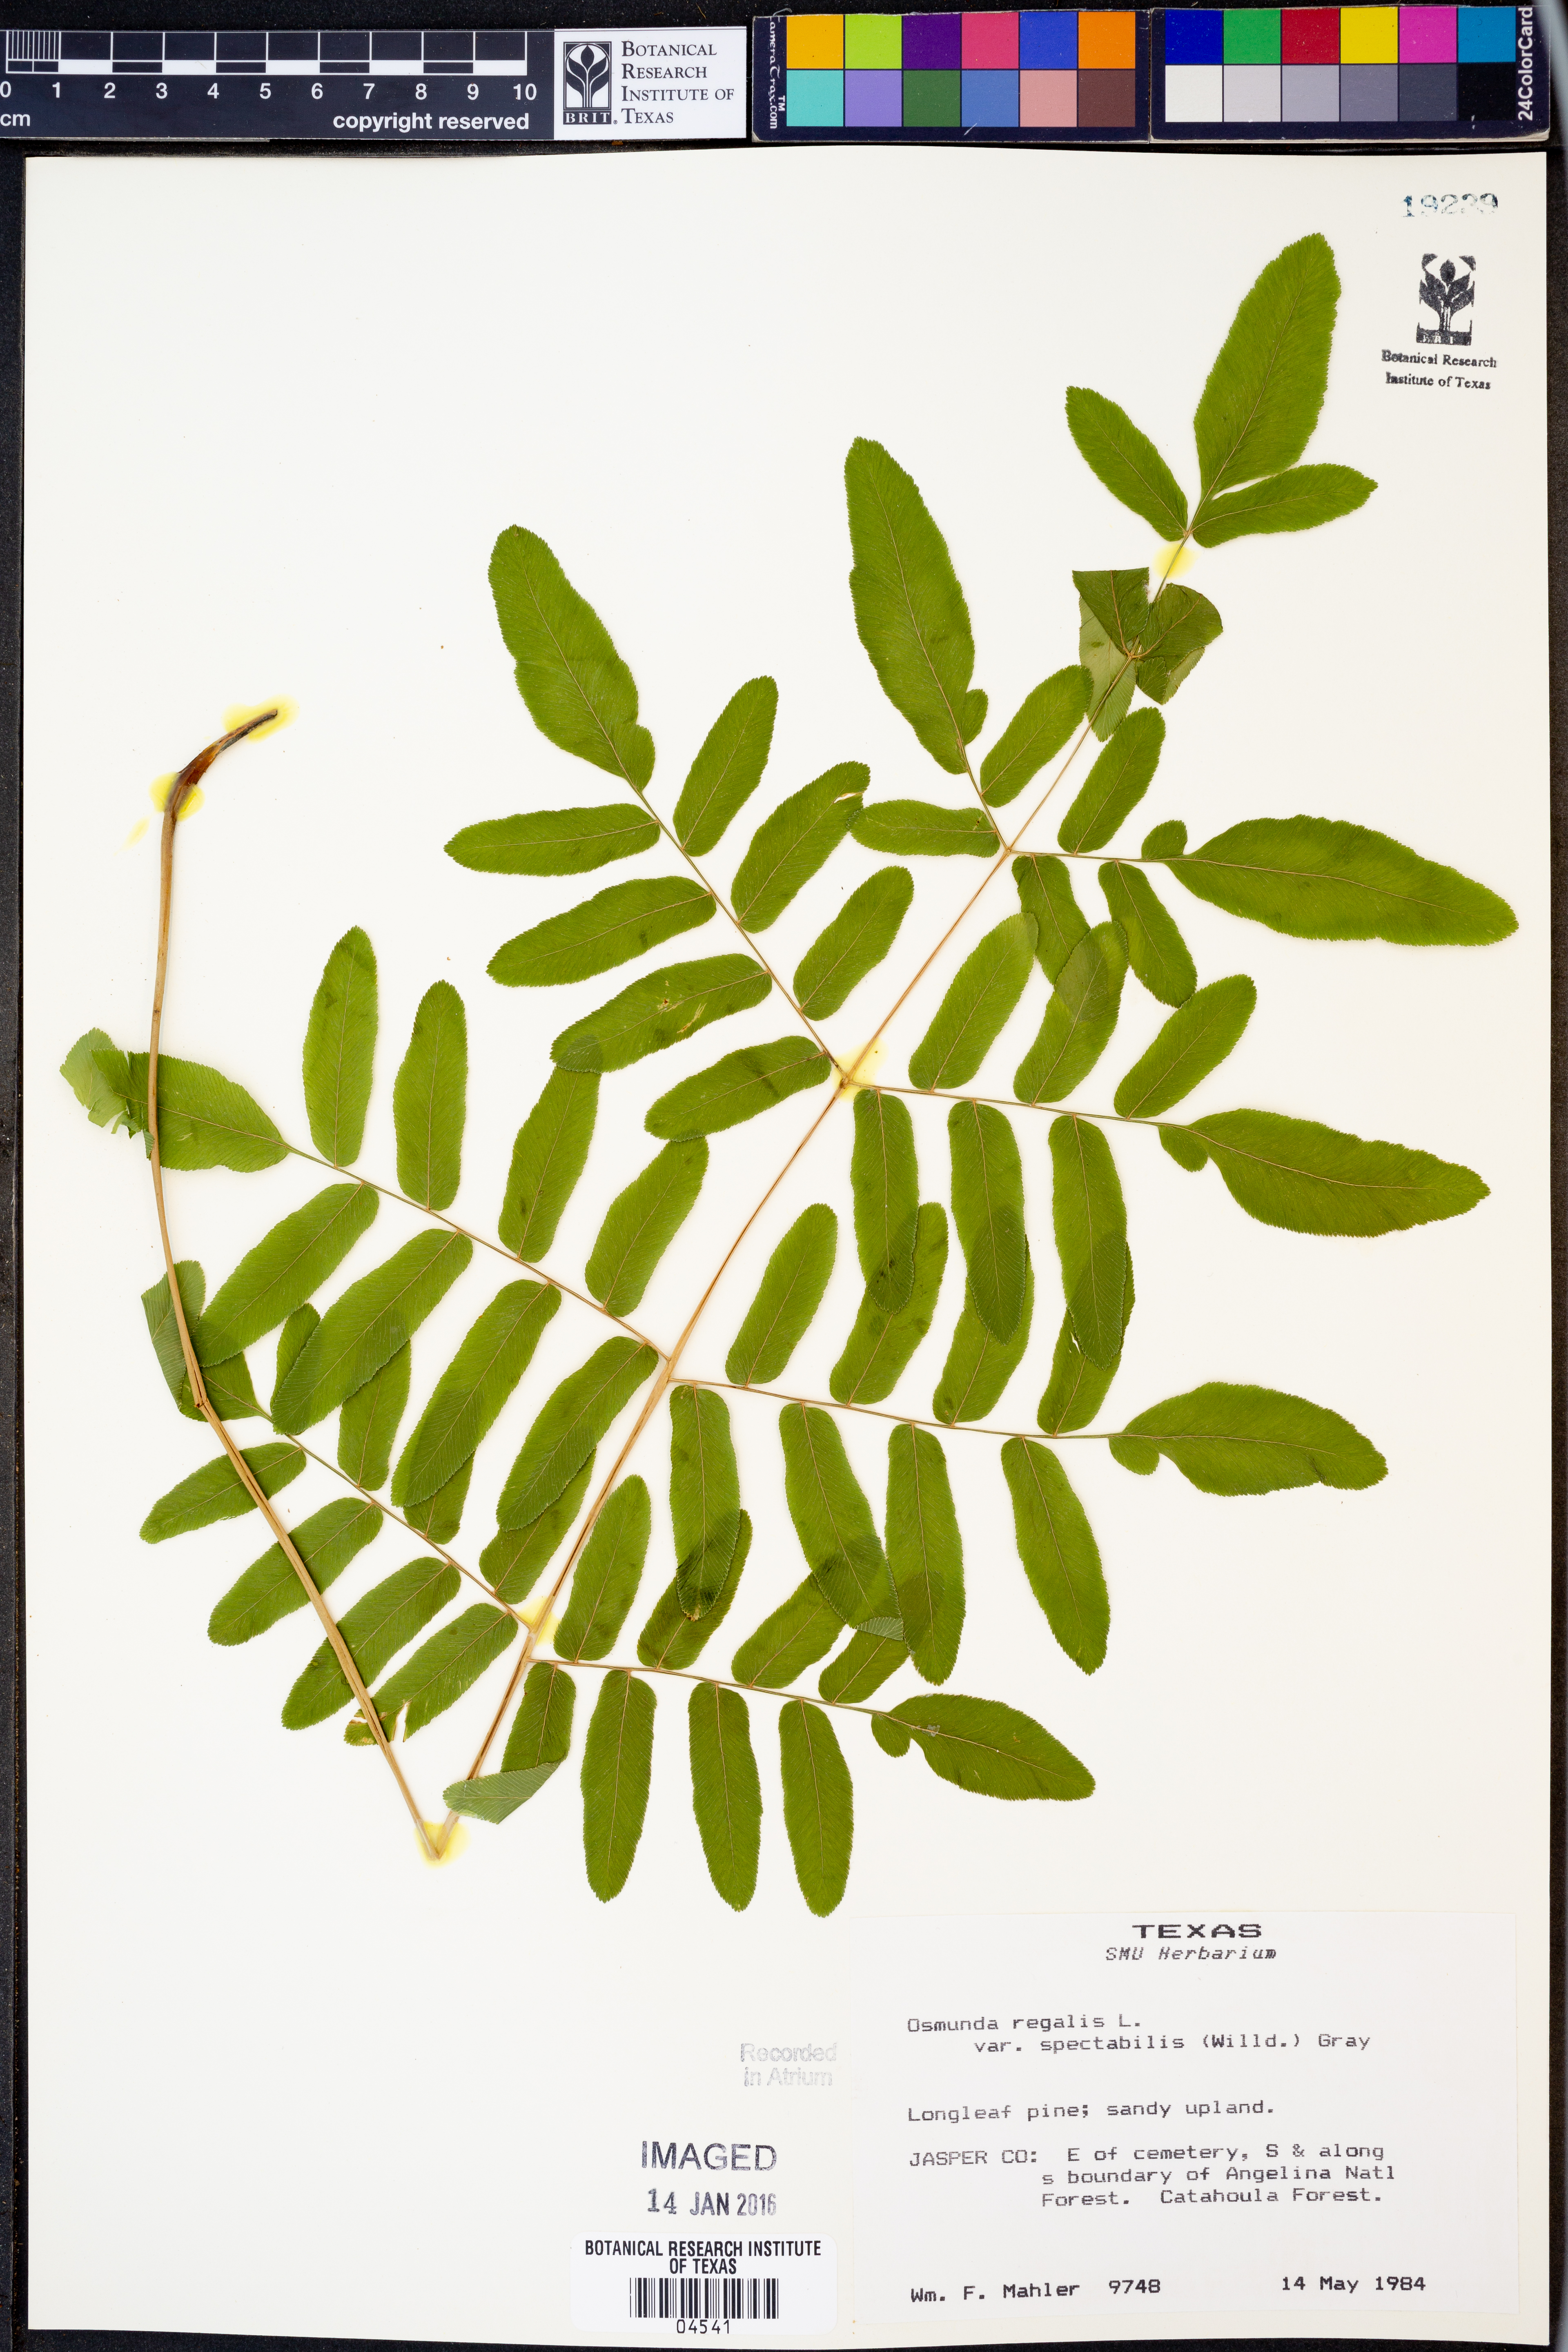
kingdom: Plantae
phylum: Tracheophyta
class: Polypodiopsida
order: Osmundales
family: Osmundaceae
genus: Osmunda
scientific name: Osmunda spectabilis
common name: American royal fern
